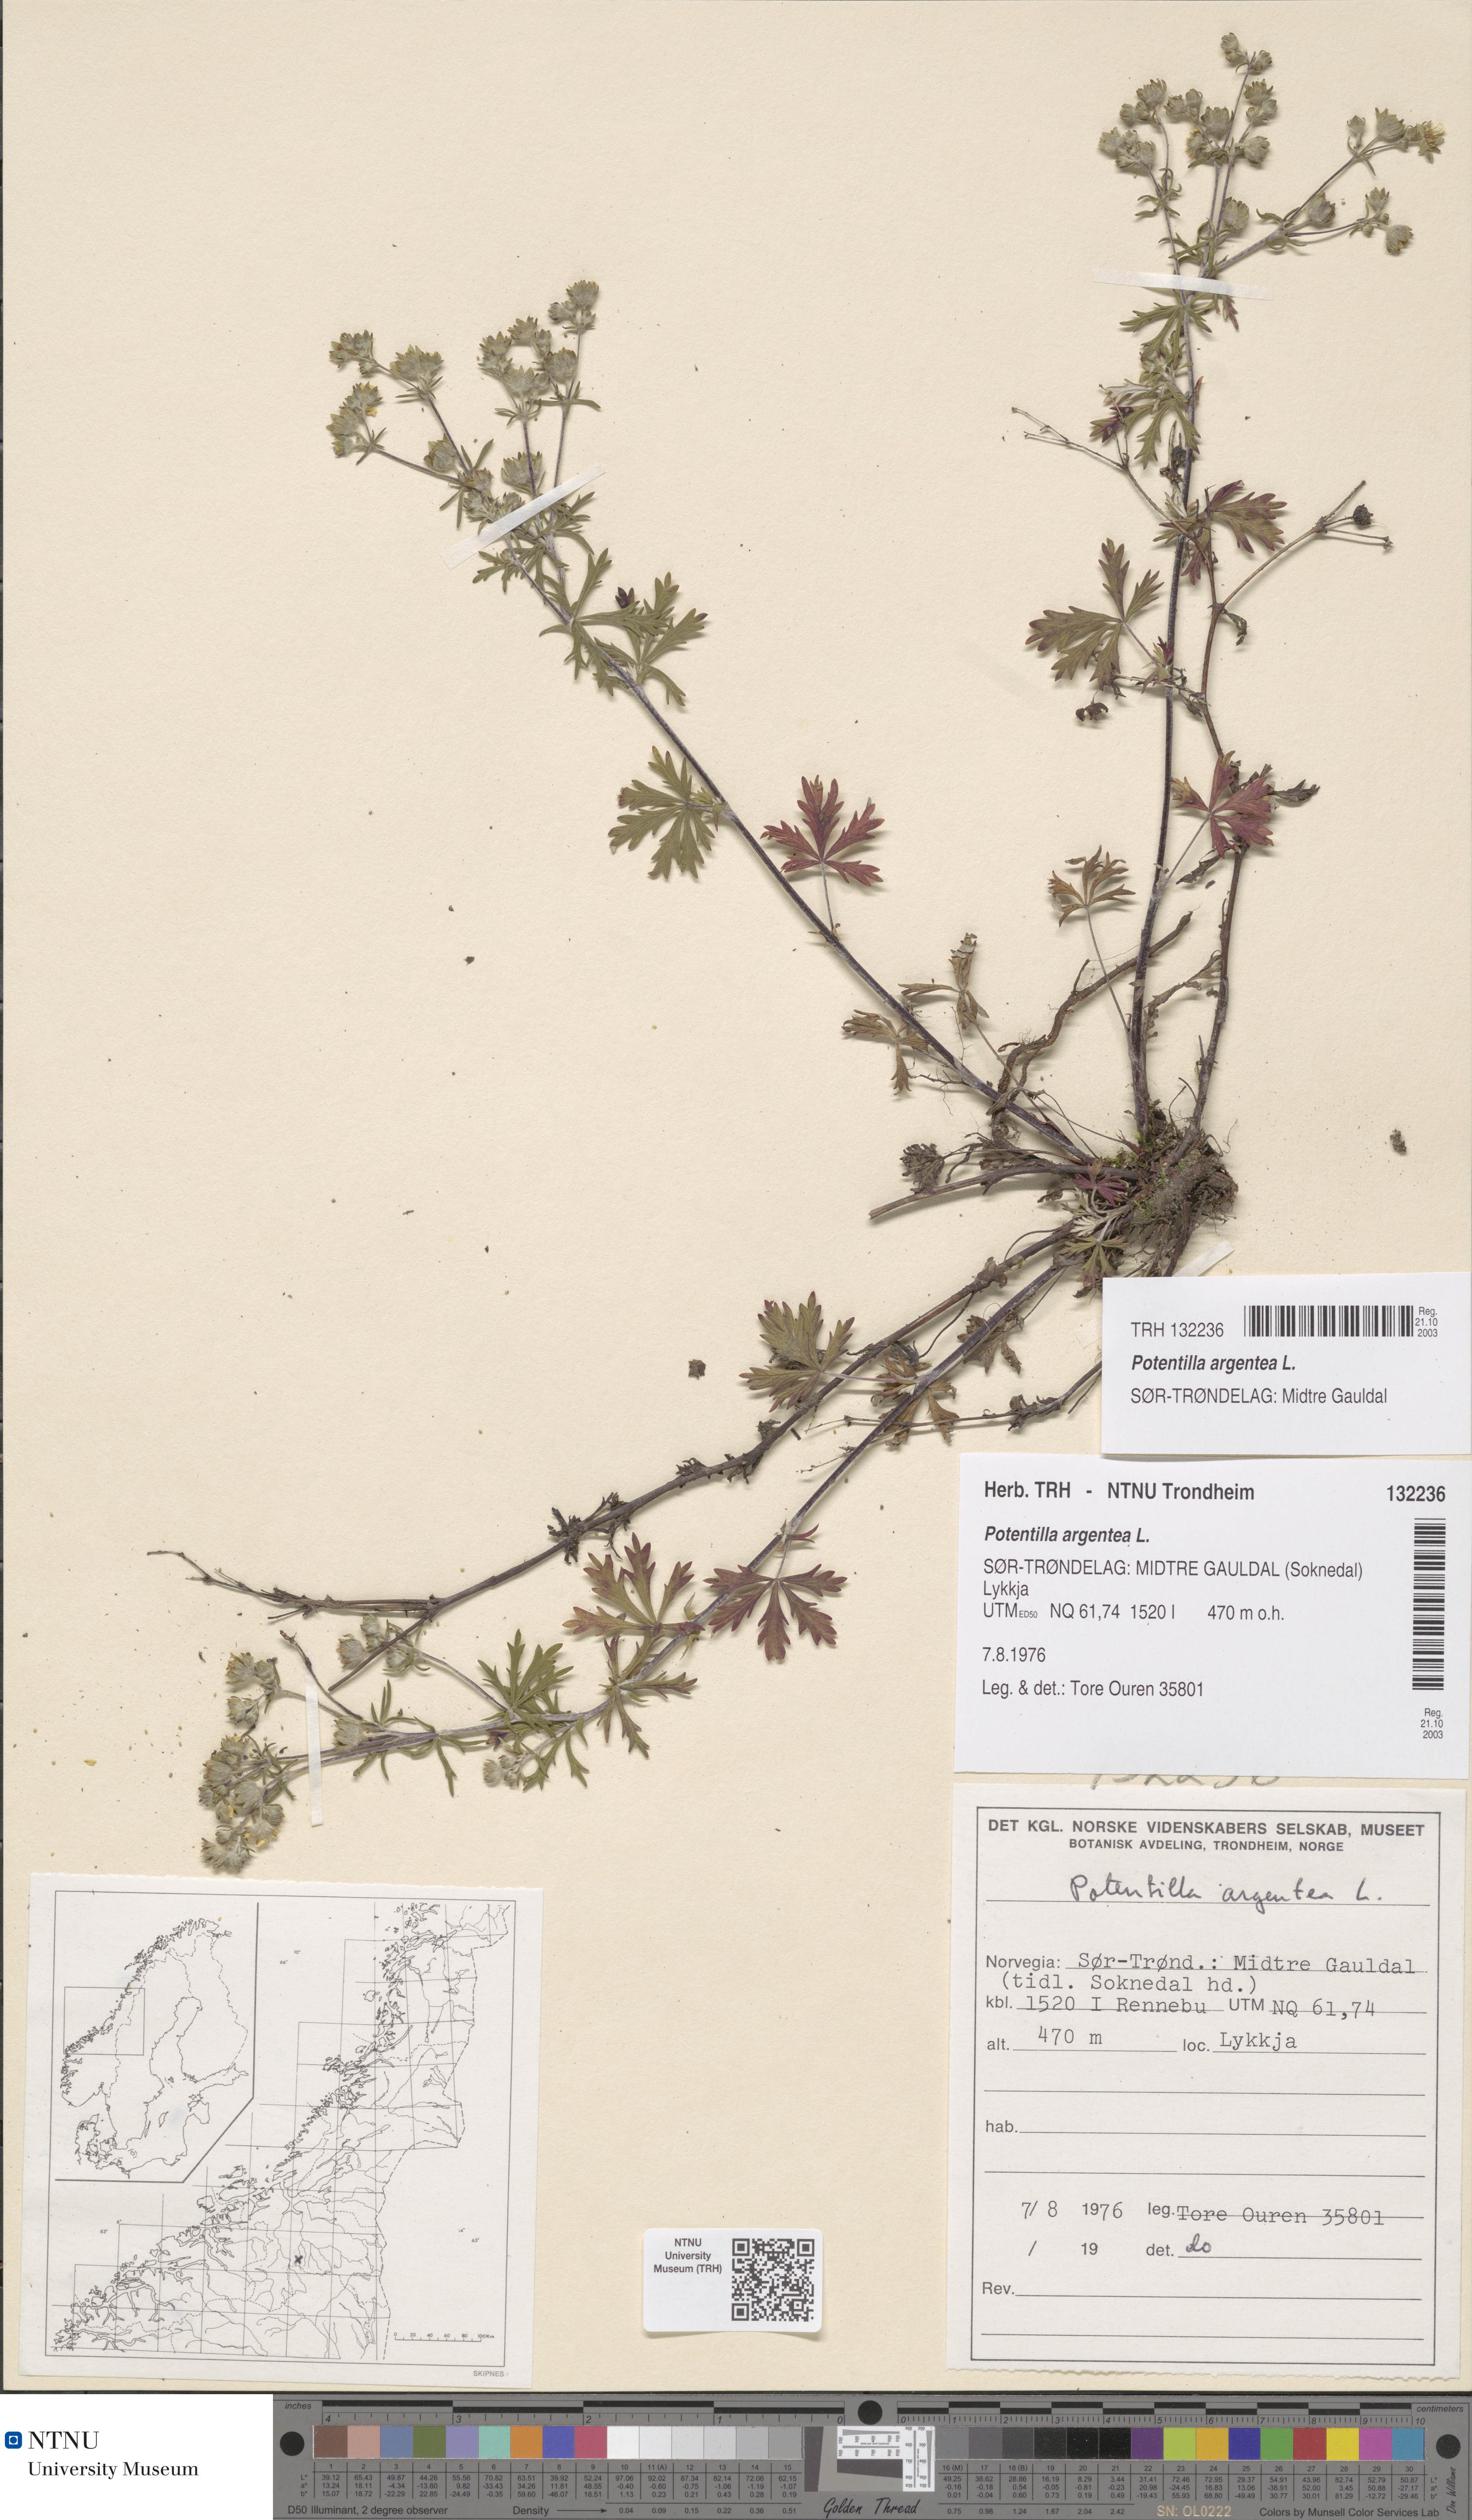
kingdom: Plantae
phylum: Tracheophyta
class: Magnoliopsida
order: Rosales
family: Rosaceae
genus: Potentilla
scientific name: Potentilla argentea
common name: Hoary cinquefoil
